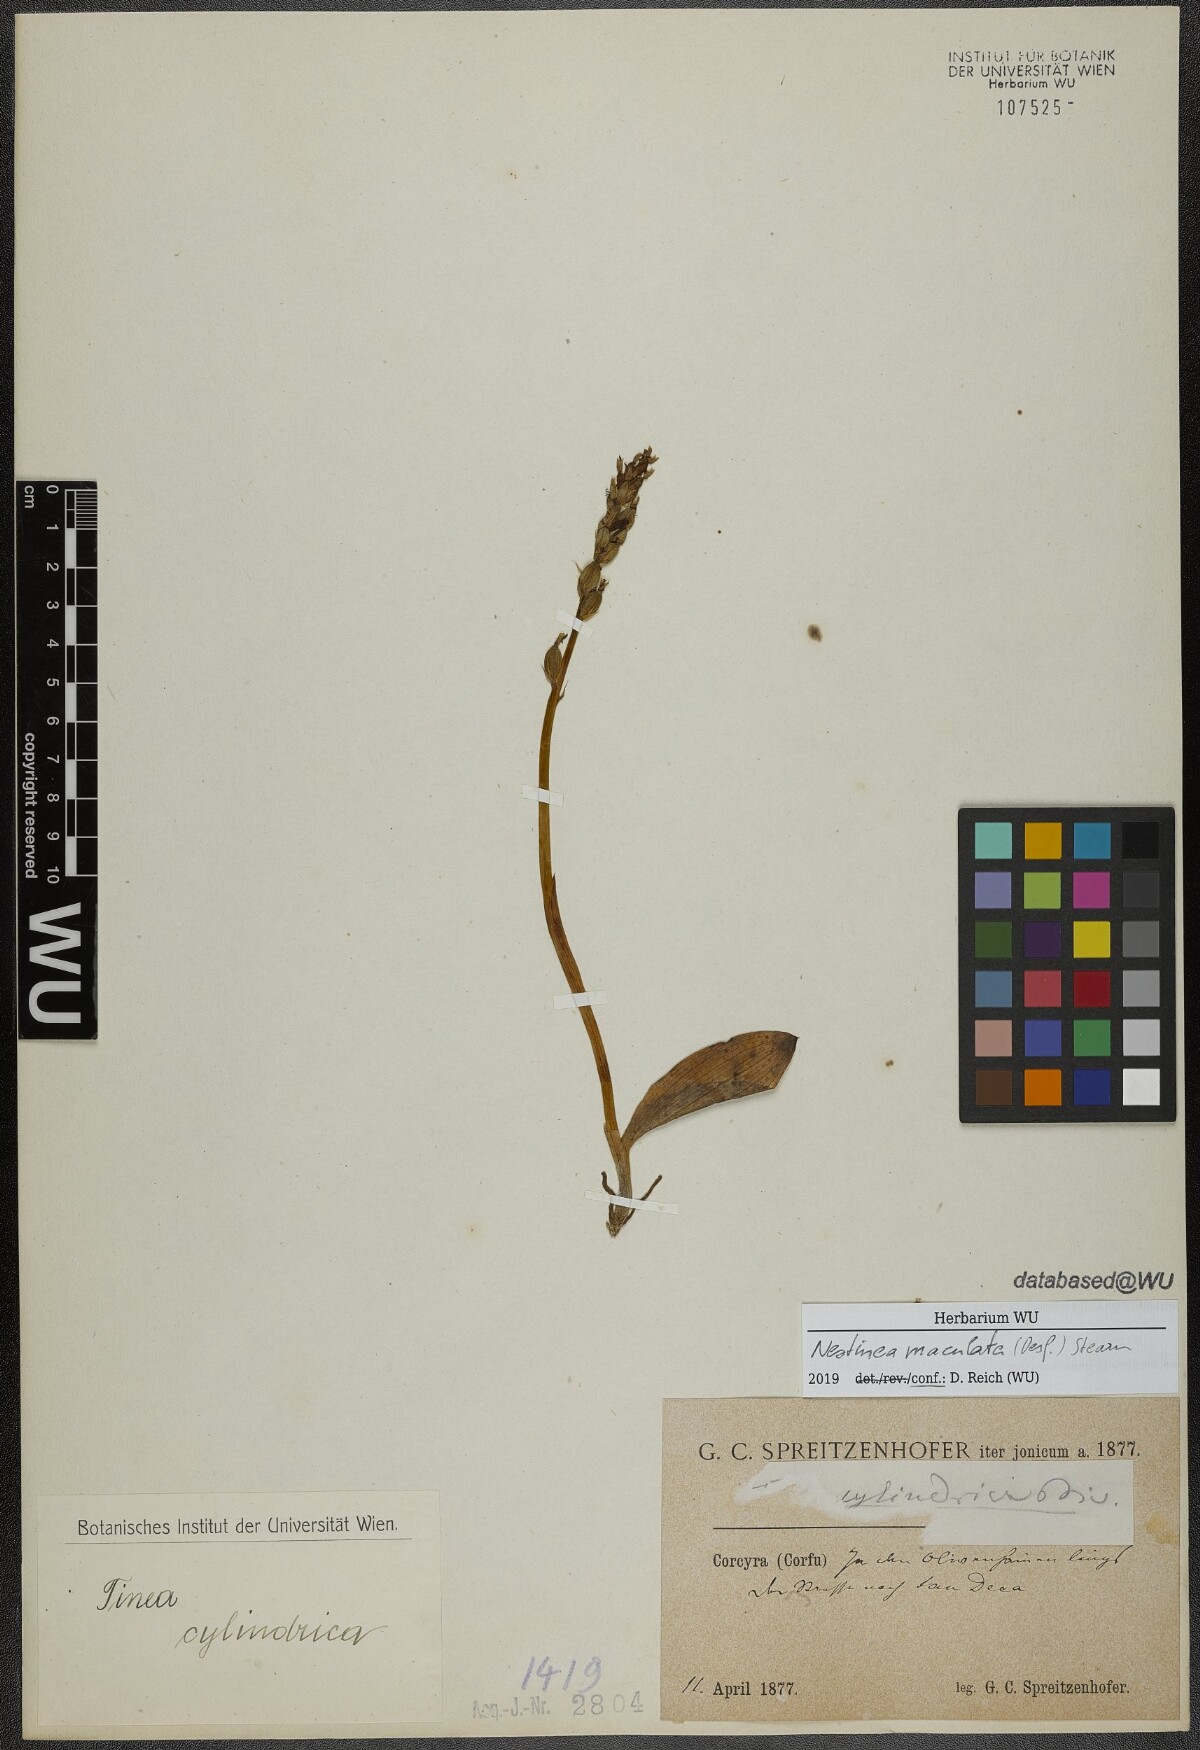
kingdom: Plantae
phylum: Tracheophyta
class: Liliopsida
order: Asparagales
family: Orchidaceae
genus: Neotinea
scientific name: Neotinea maculata
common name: Dense-flowered orchid
